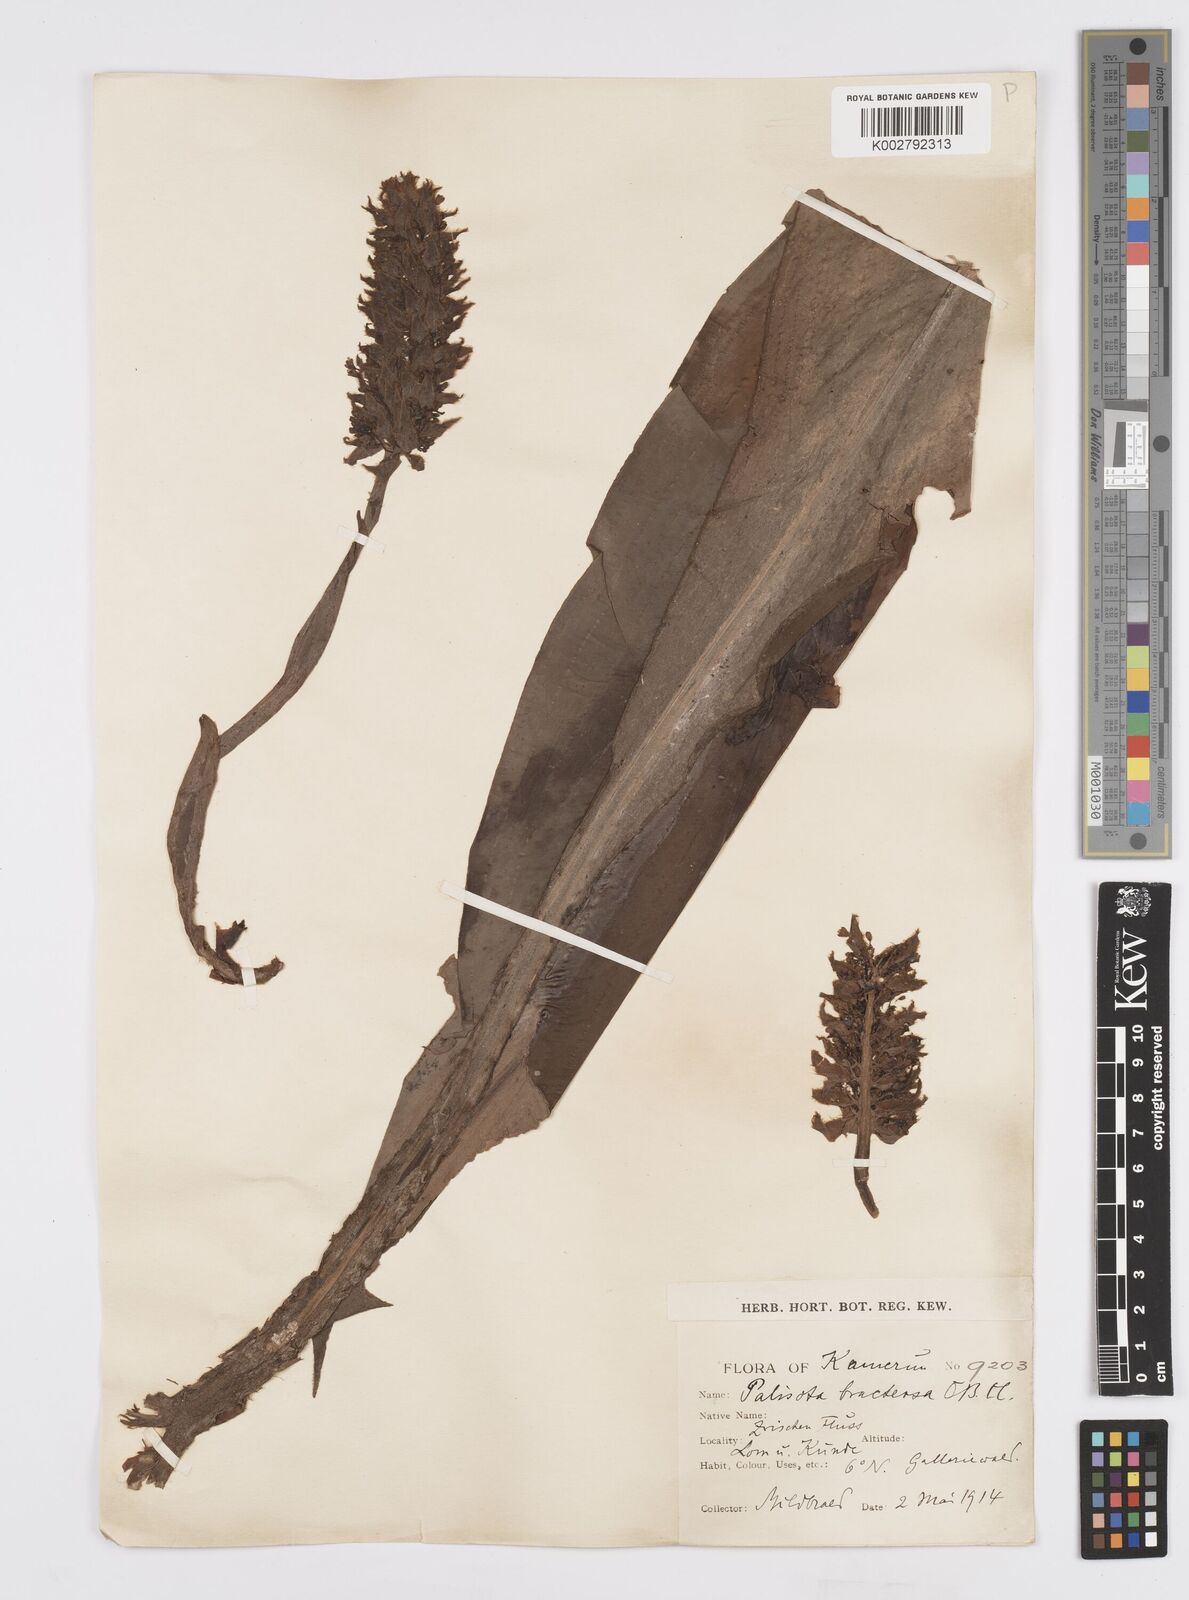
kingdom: Plantae
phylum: Tracheophyta
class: Liliopsida
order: Commelinales
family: Commelinaceae
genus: Palisota
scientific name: Palisota bracteosa
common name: Palisota
